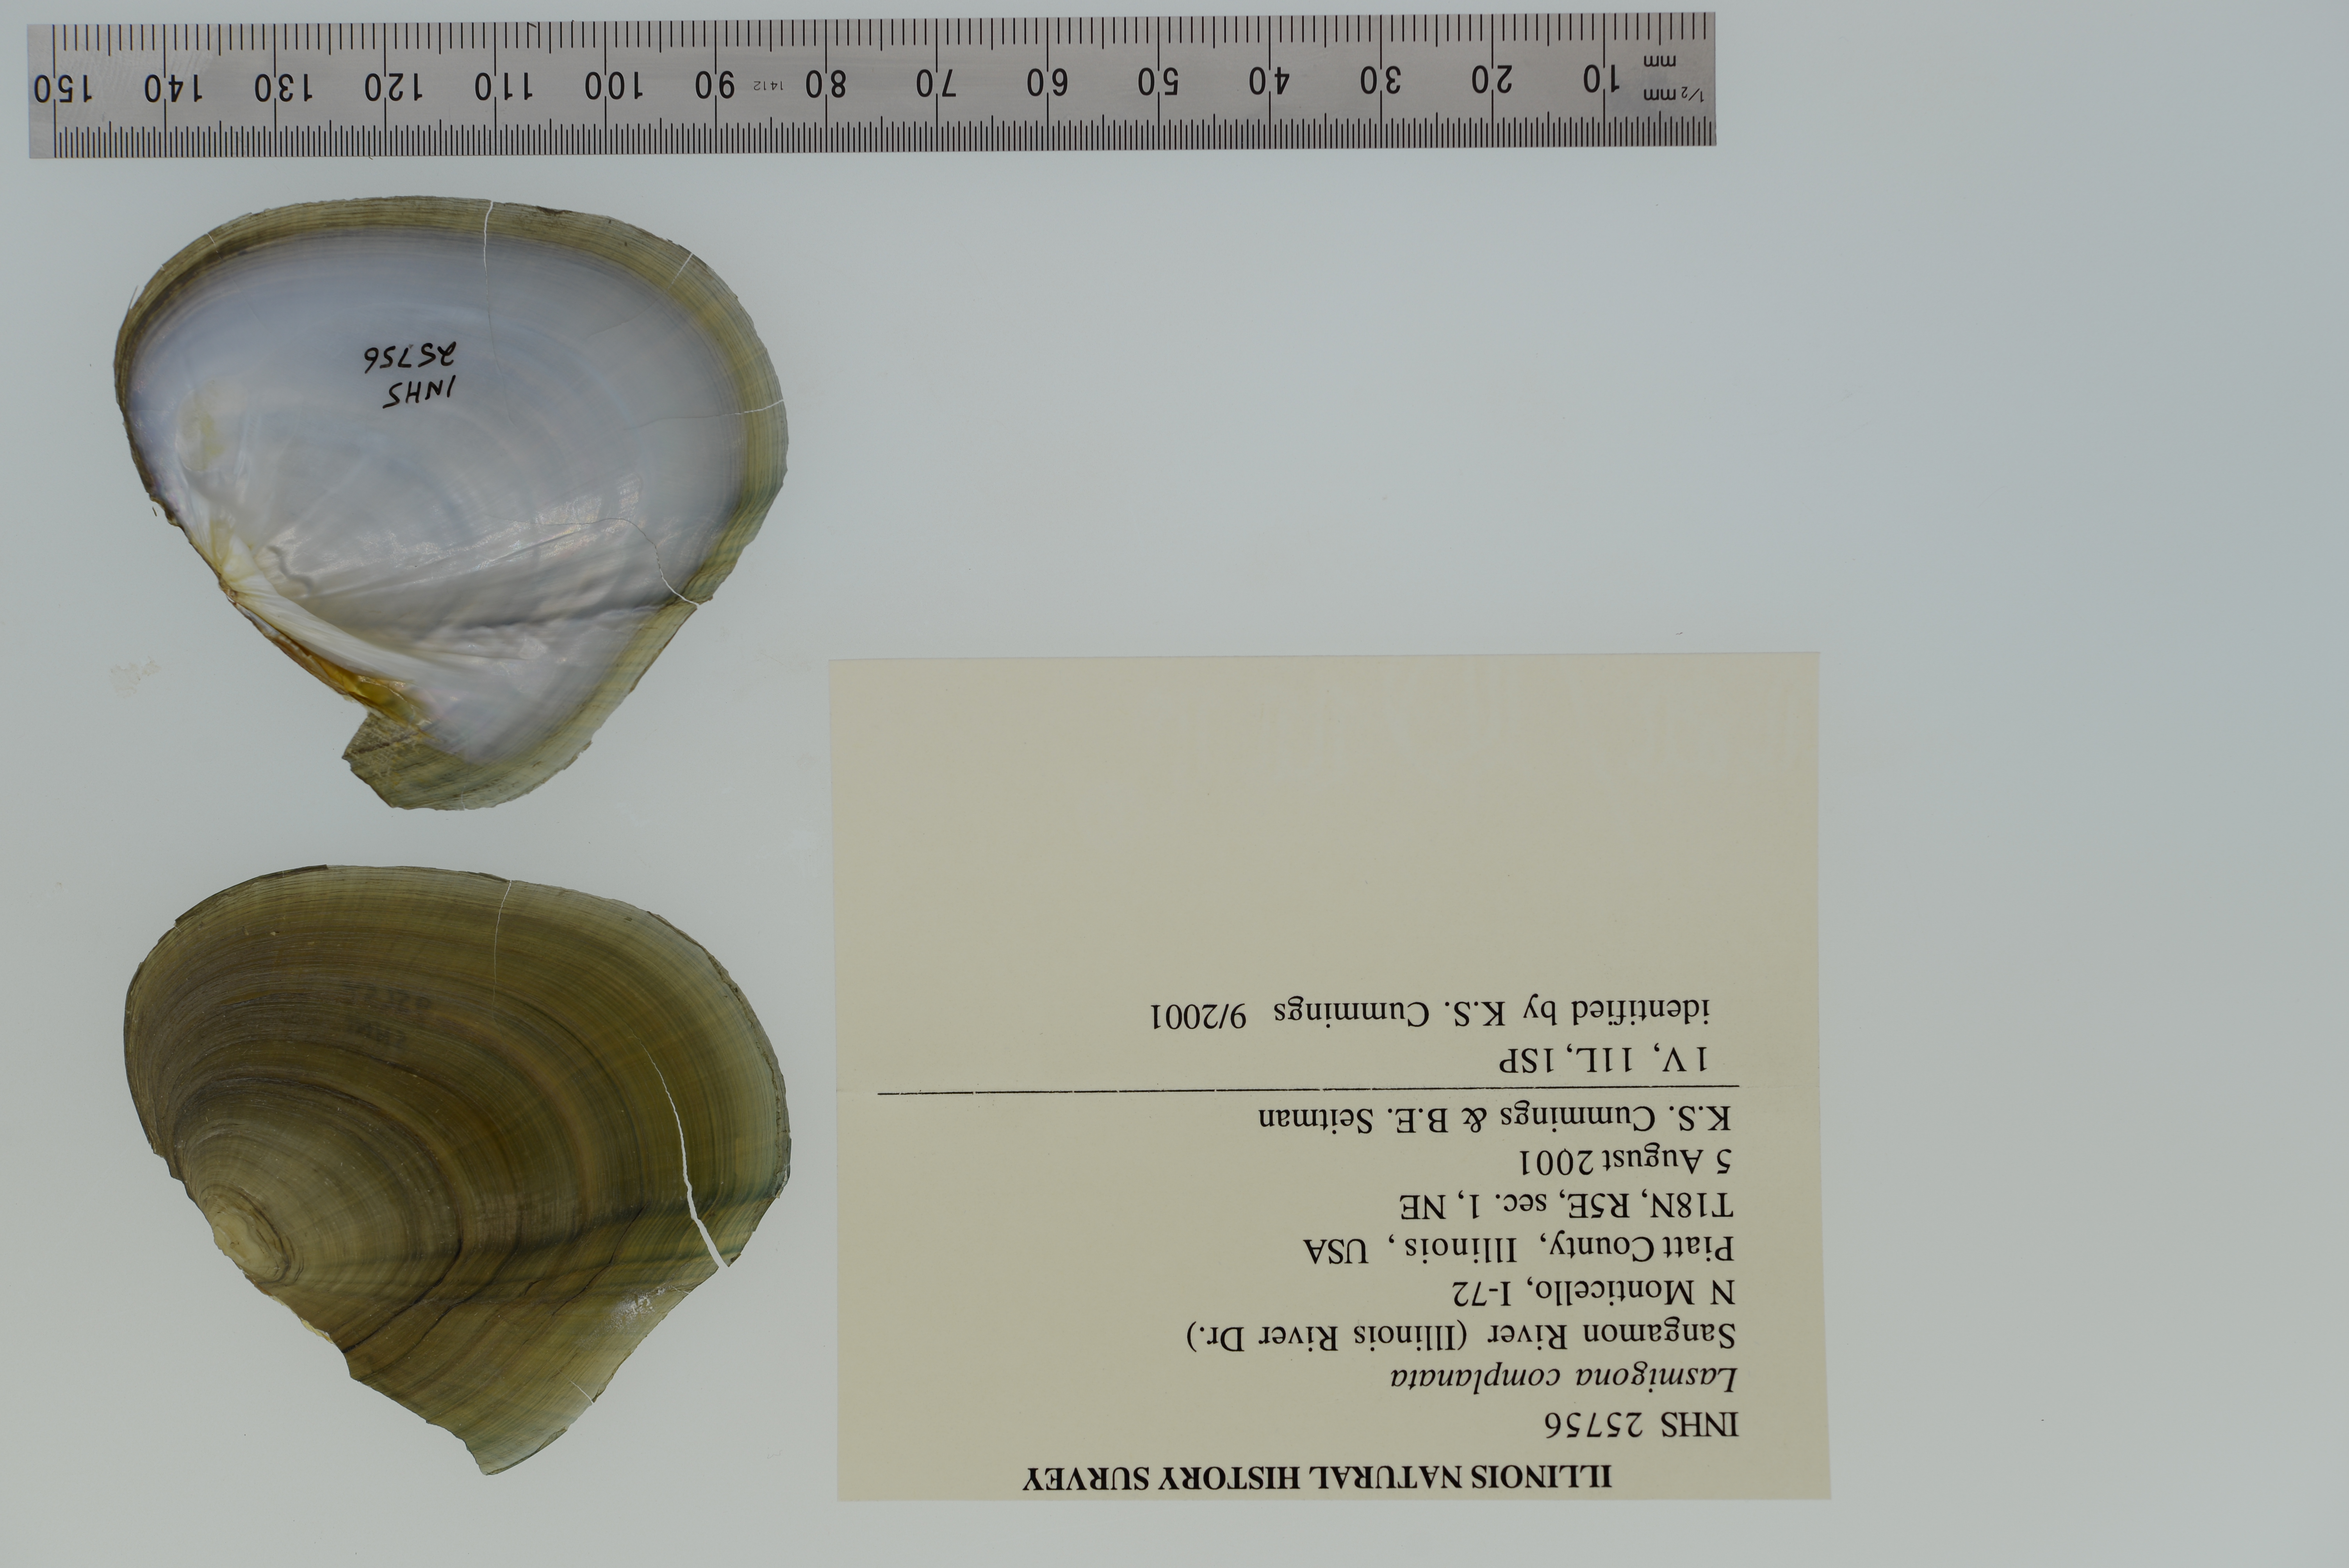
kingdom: Animalia
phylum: Mollusca
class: Bivalvia
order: Unionida
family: Unionidae
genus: Lasmigona
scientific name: Lasmigona complanata
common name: White heelsplitter
